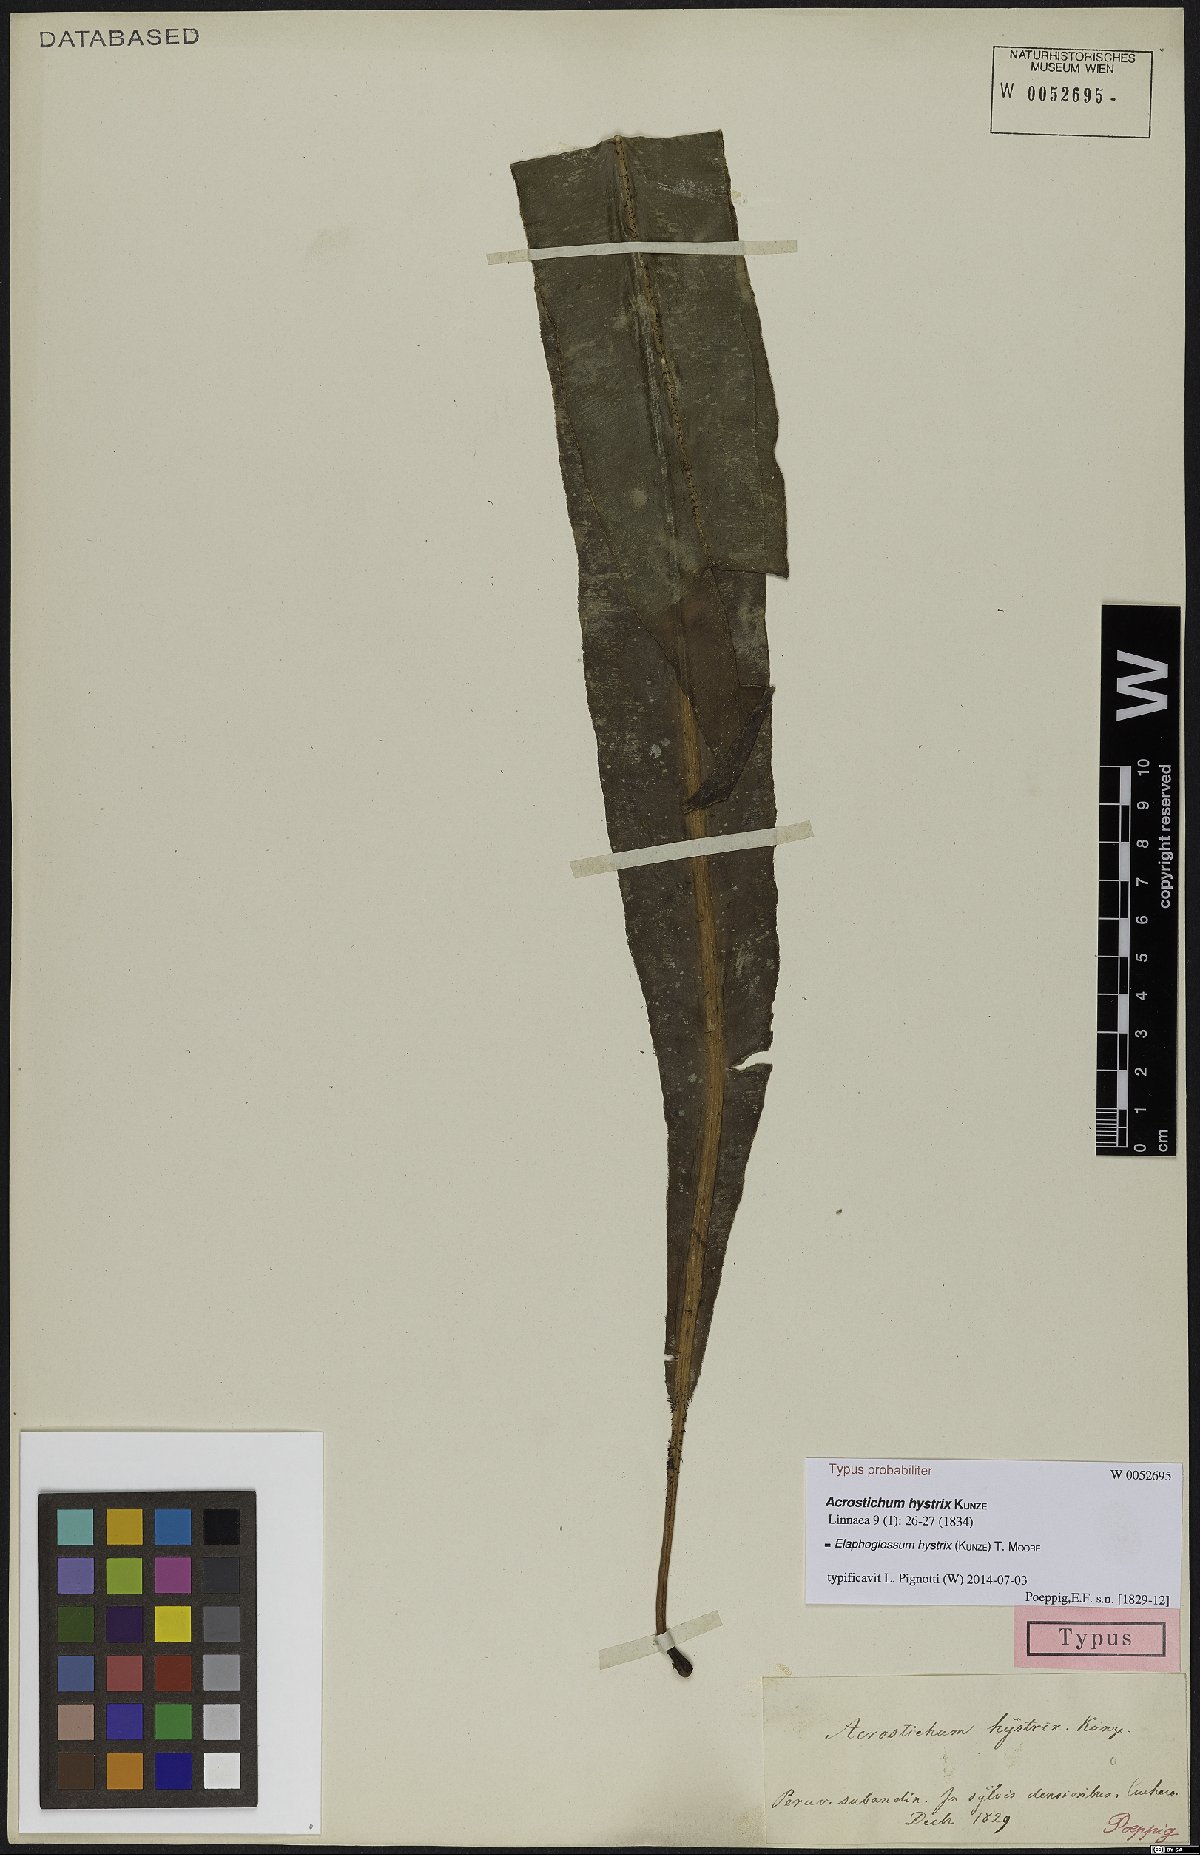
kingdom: Plantae
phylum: Tracheophyta
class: Polypodiopsida
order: Polypodiales
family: Dryopteridaceae
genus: Elaphoglossum
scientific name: Elaphoglossum hystrix
